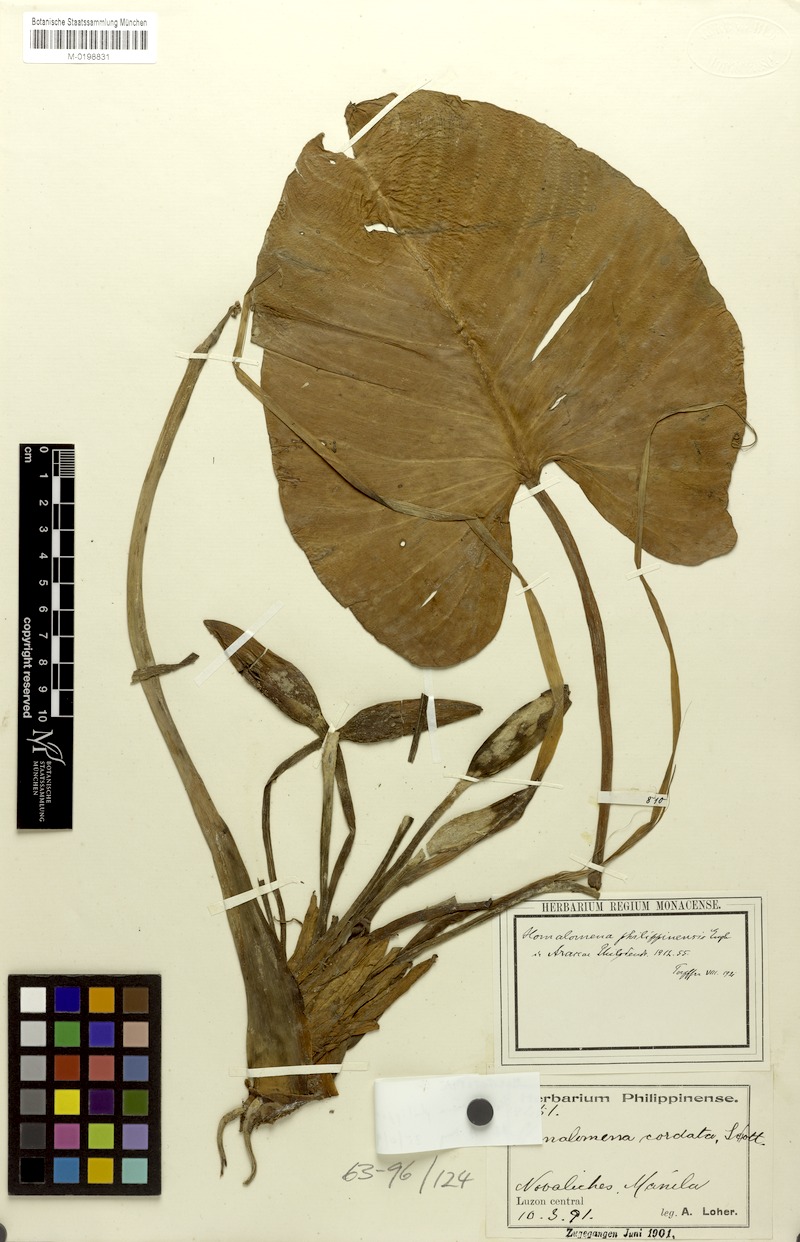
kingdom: Plantae
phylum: Tracheophyta
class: Liliopsida
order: Alismatales
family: Araceae
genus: Homalomena
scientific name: Homalomena philippinensis
